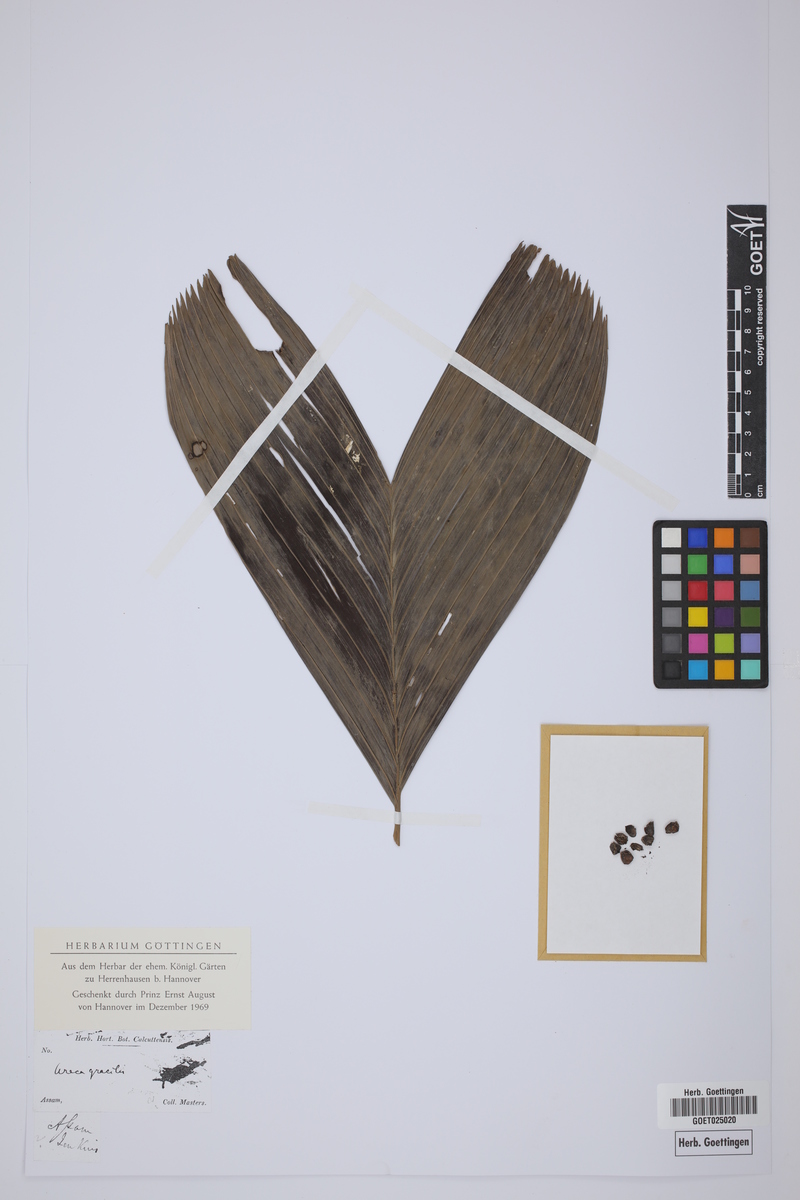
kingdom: Plantae
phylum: Tracheophyta
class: Liliopsida
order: Arecales
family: Arecaceae
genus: Areca
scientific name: Areca gracilis
